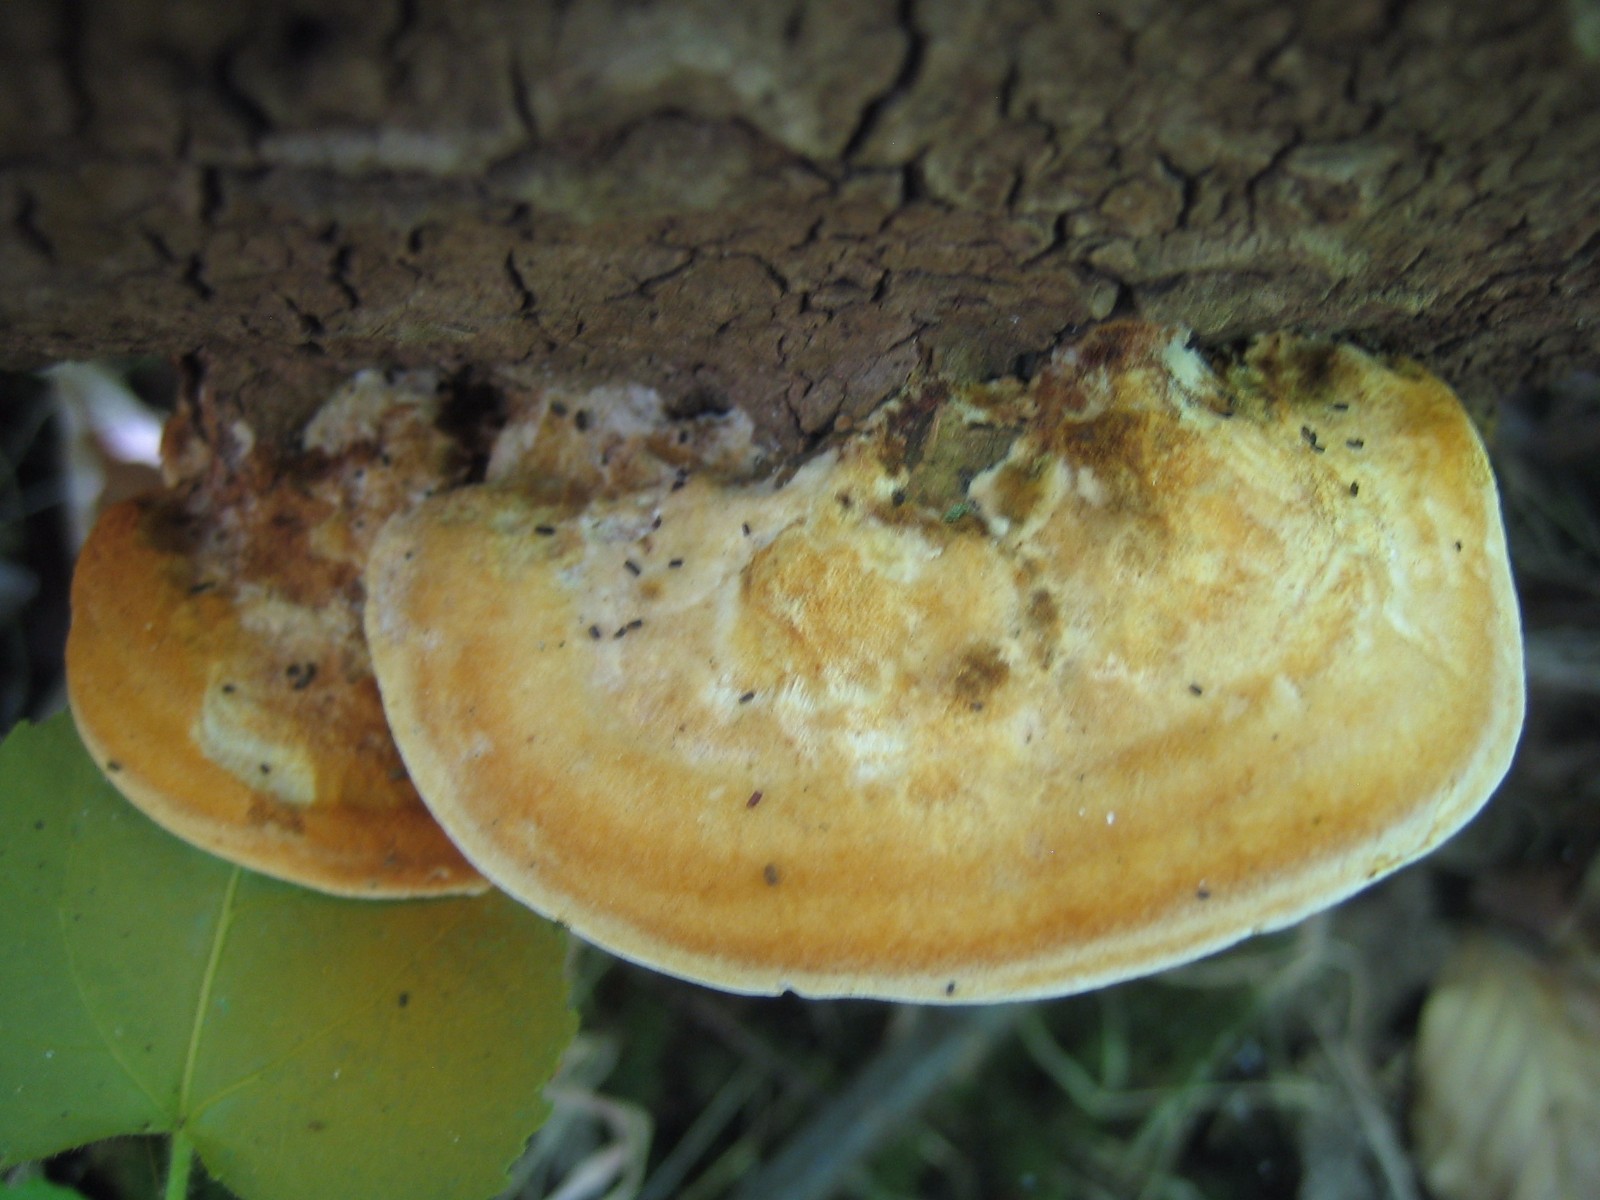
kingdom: Fungi
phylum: Basidiomycota
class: Agaricomycetes
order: Hymenochaetales
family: Hymenochaetaceae
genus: Inocutis
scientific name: Inocutis rheades
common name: ræve-spejlporesvamp
